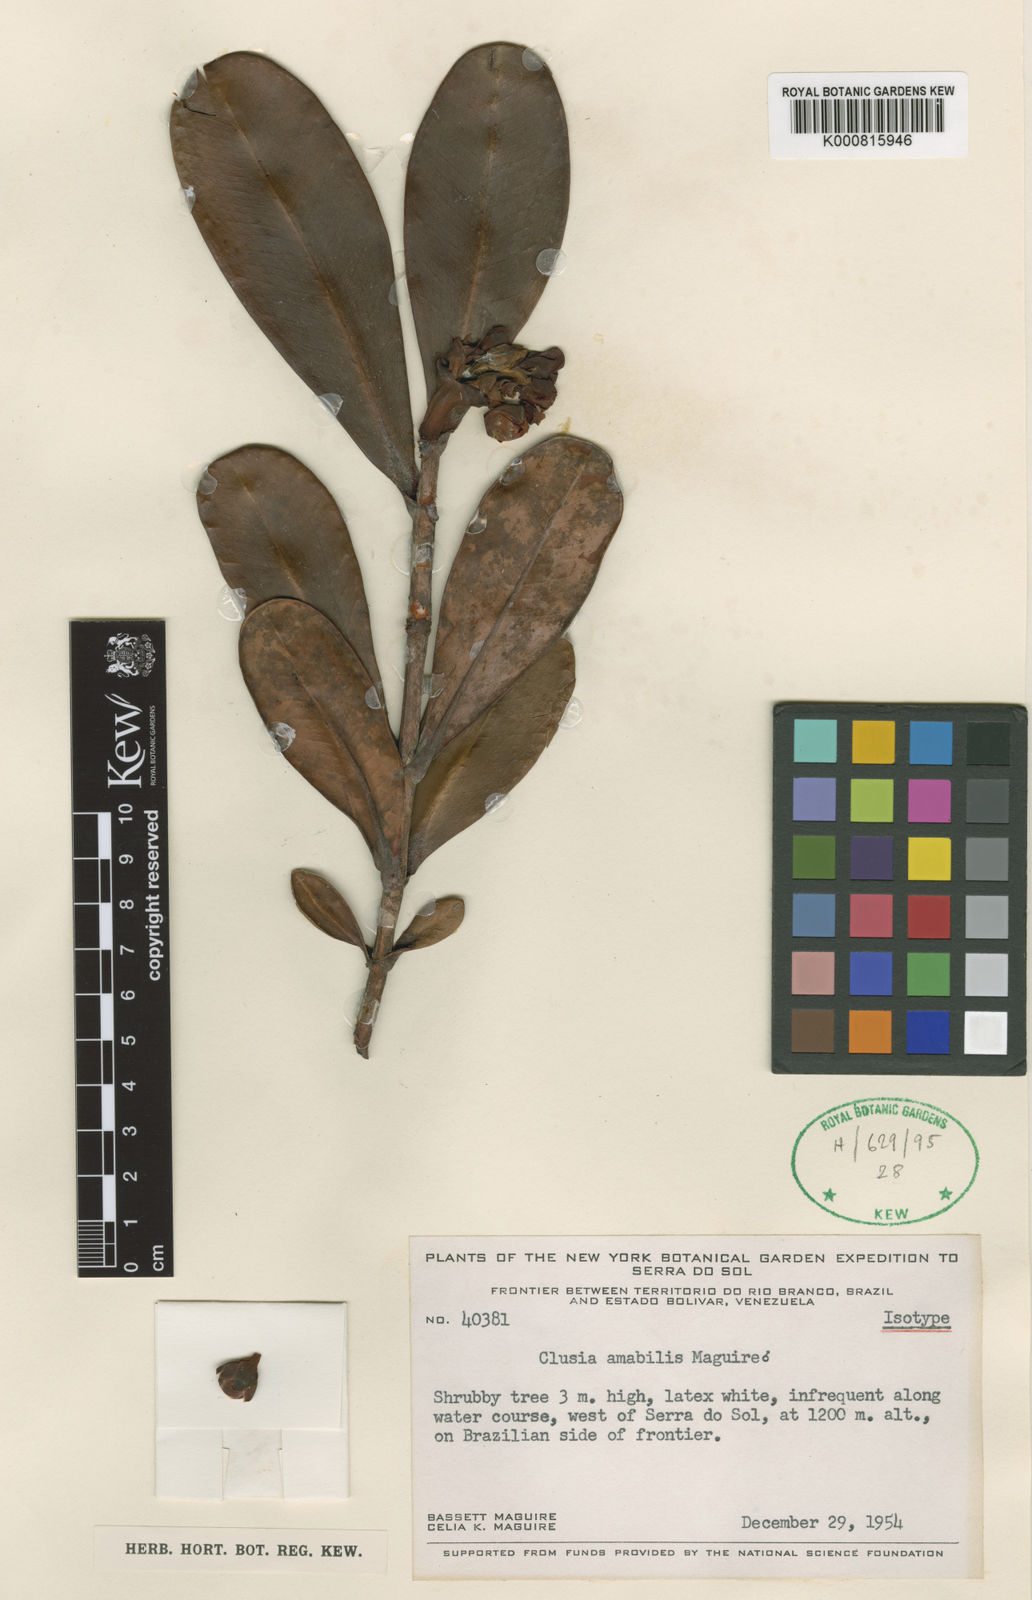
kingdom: Plantae
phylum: Tracheophyta
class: Magnoliopsida
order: Malpighiales
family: Clusiaceae
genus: Clusia
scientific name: Clusia amabilis
